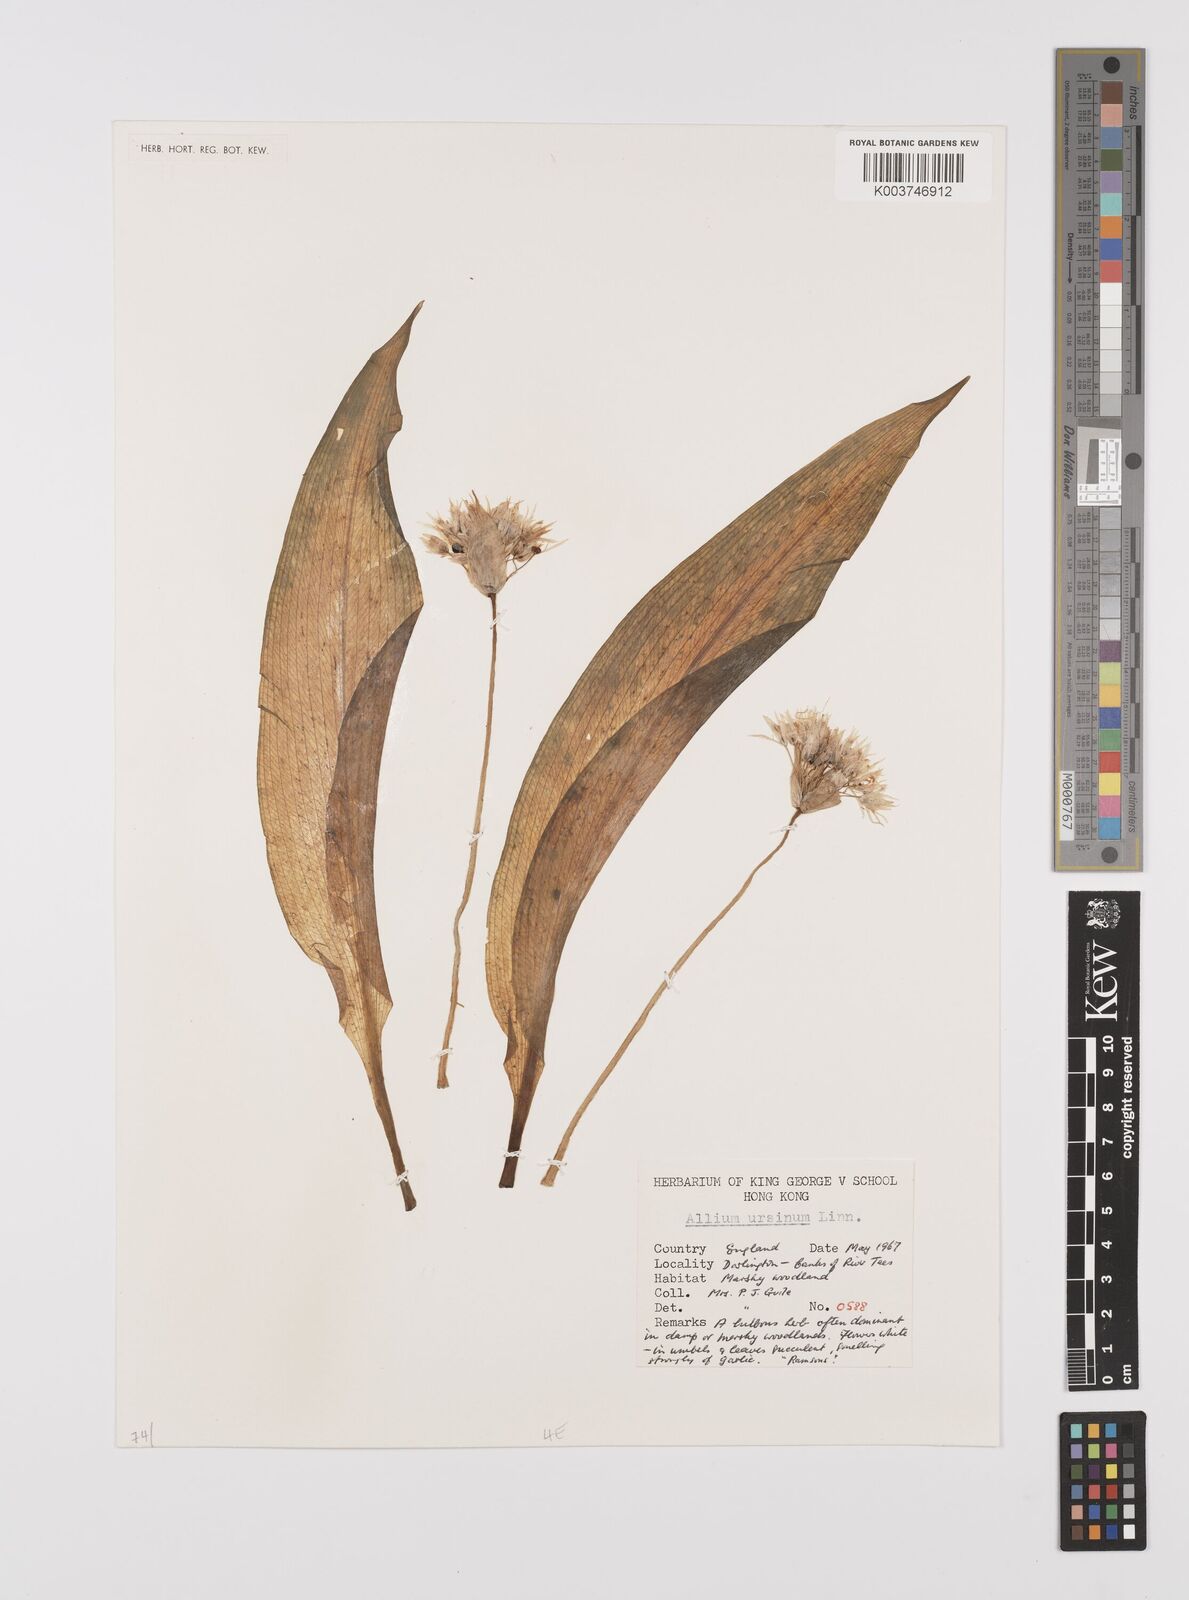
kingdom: Plantae
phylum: Tracheophyta
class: Liliopsida
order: Asparagales
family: Amaryllidaceae
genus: Allium
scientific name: Allium ursinum
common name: Ramsons
